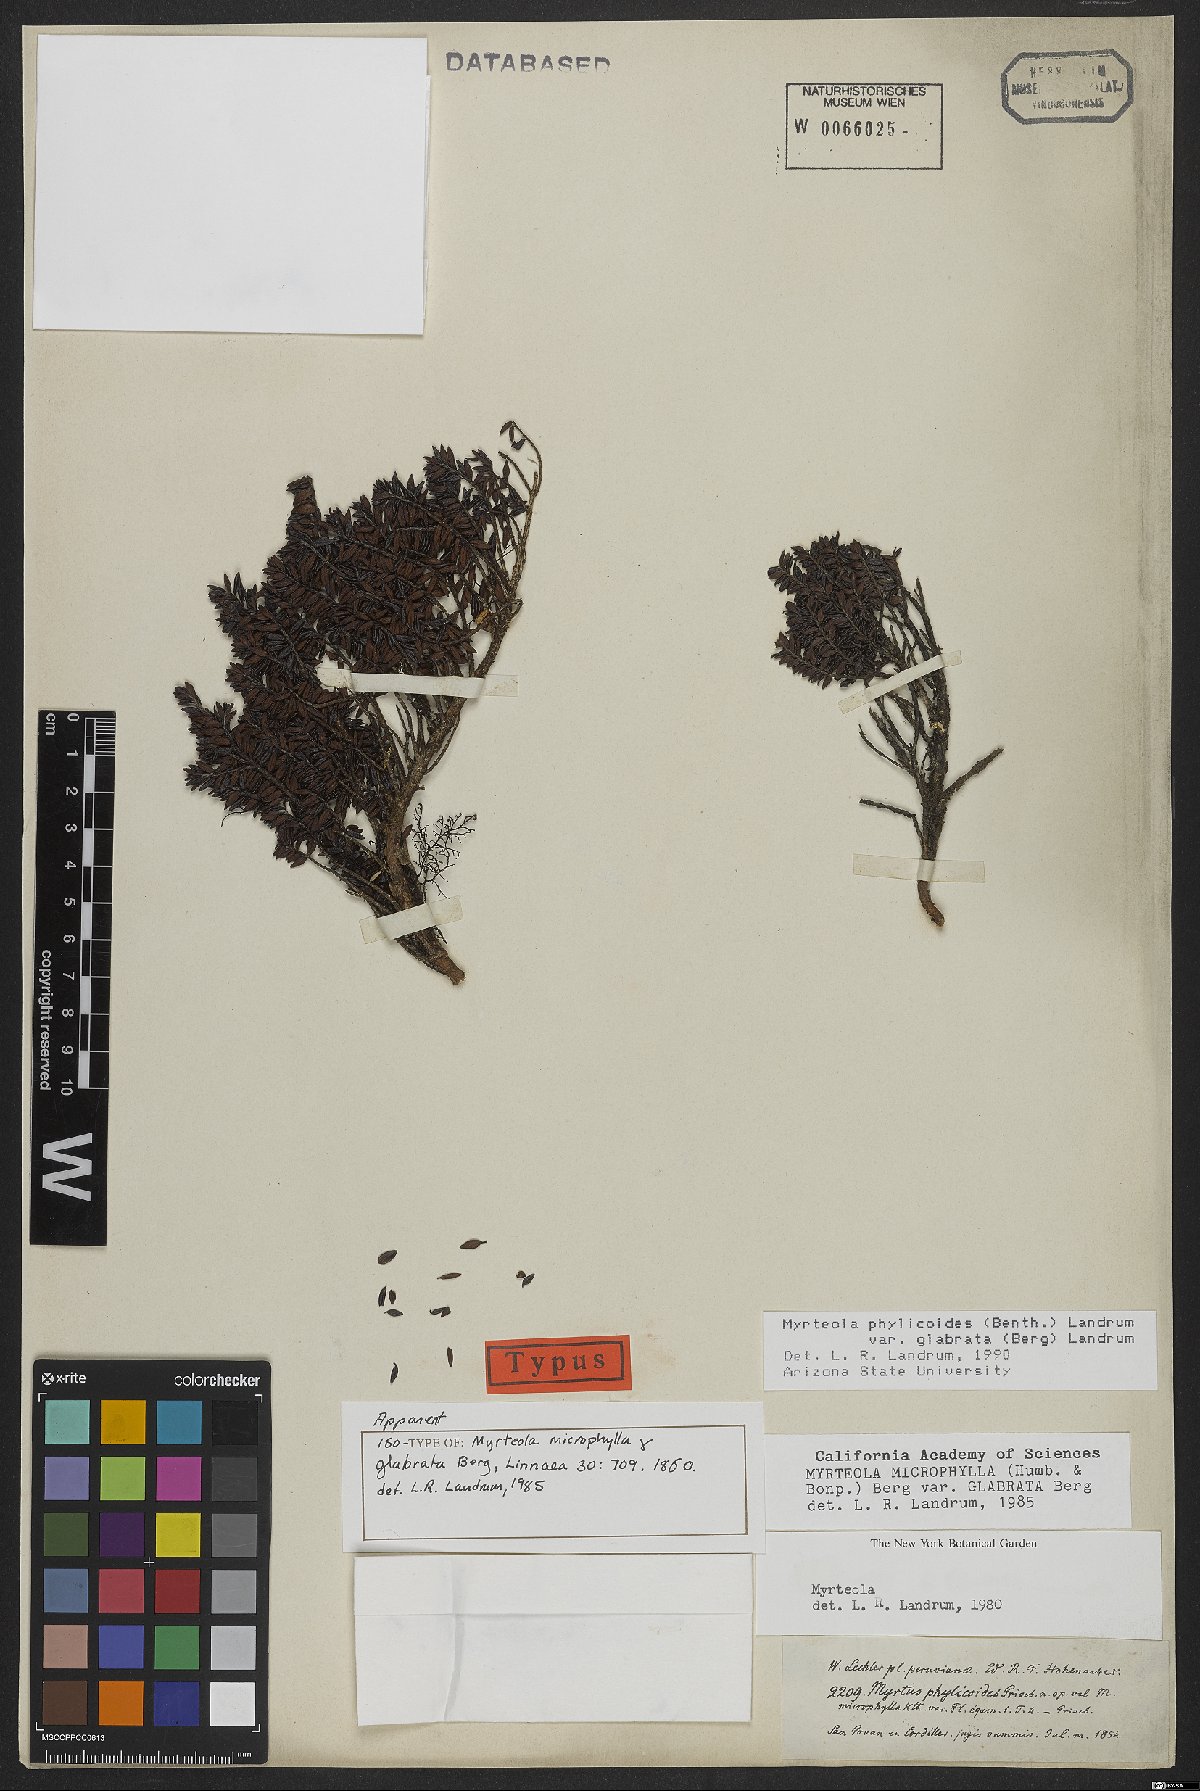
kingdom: Plantae
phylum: Tracheophyta
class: Magnoliopsida
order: Myrtales
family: Myrtaceae
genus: Myrteola
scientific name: Myrteola phylicoides
